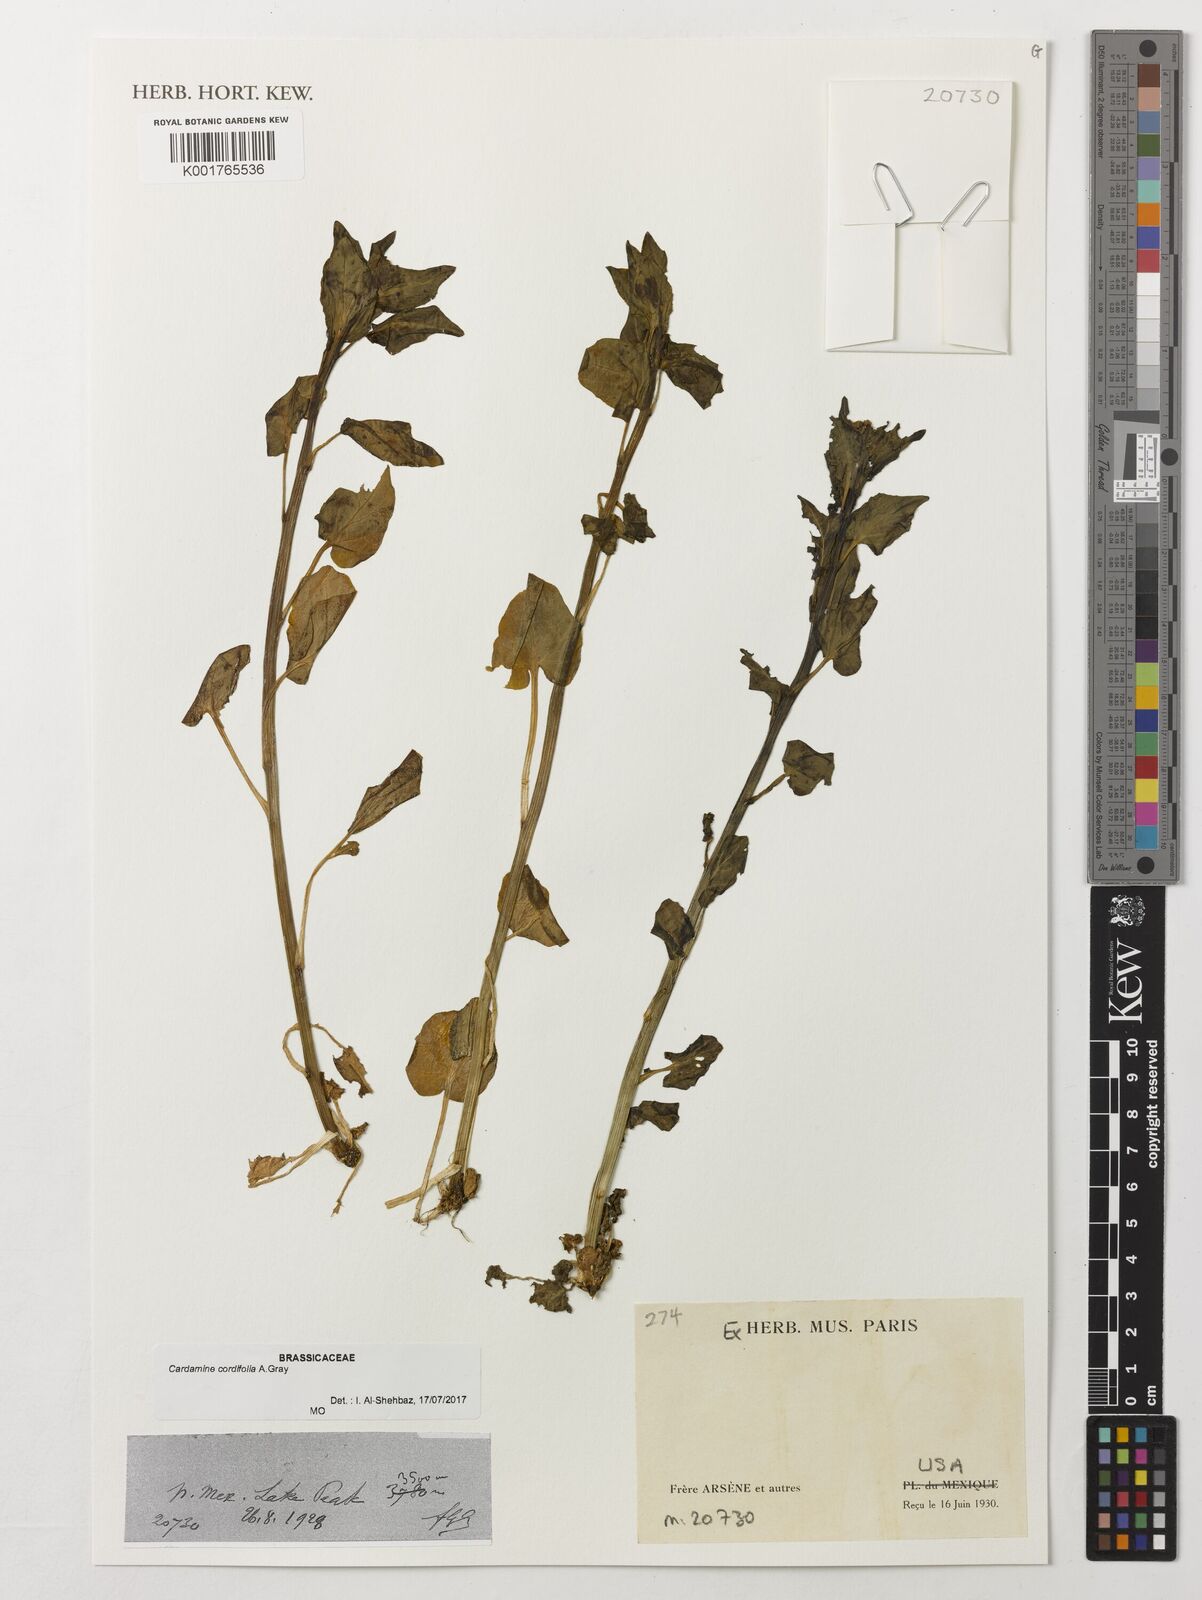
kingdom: Plantae
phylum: Tracheophyta
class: Magnoliopsida
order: Brassicales
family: Brassicaceae
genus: Cardamine
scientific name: Cardamine cordifolia
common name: Heart-leaf bittercress
